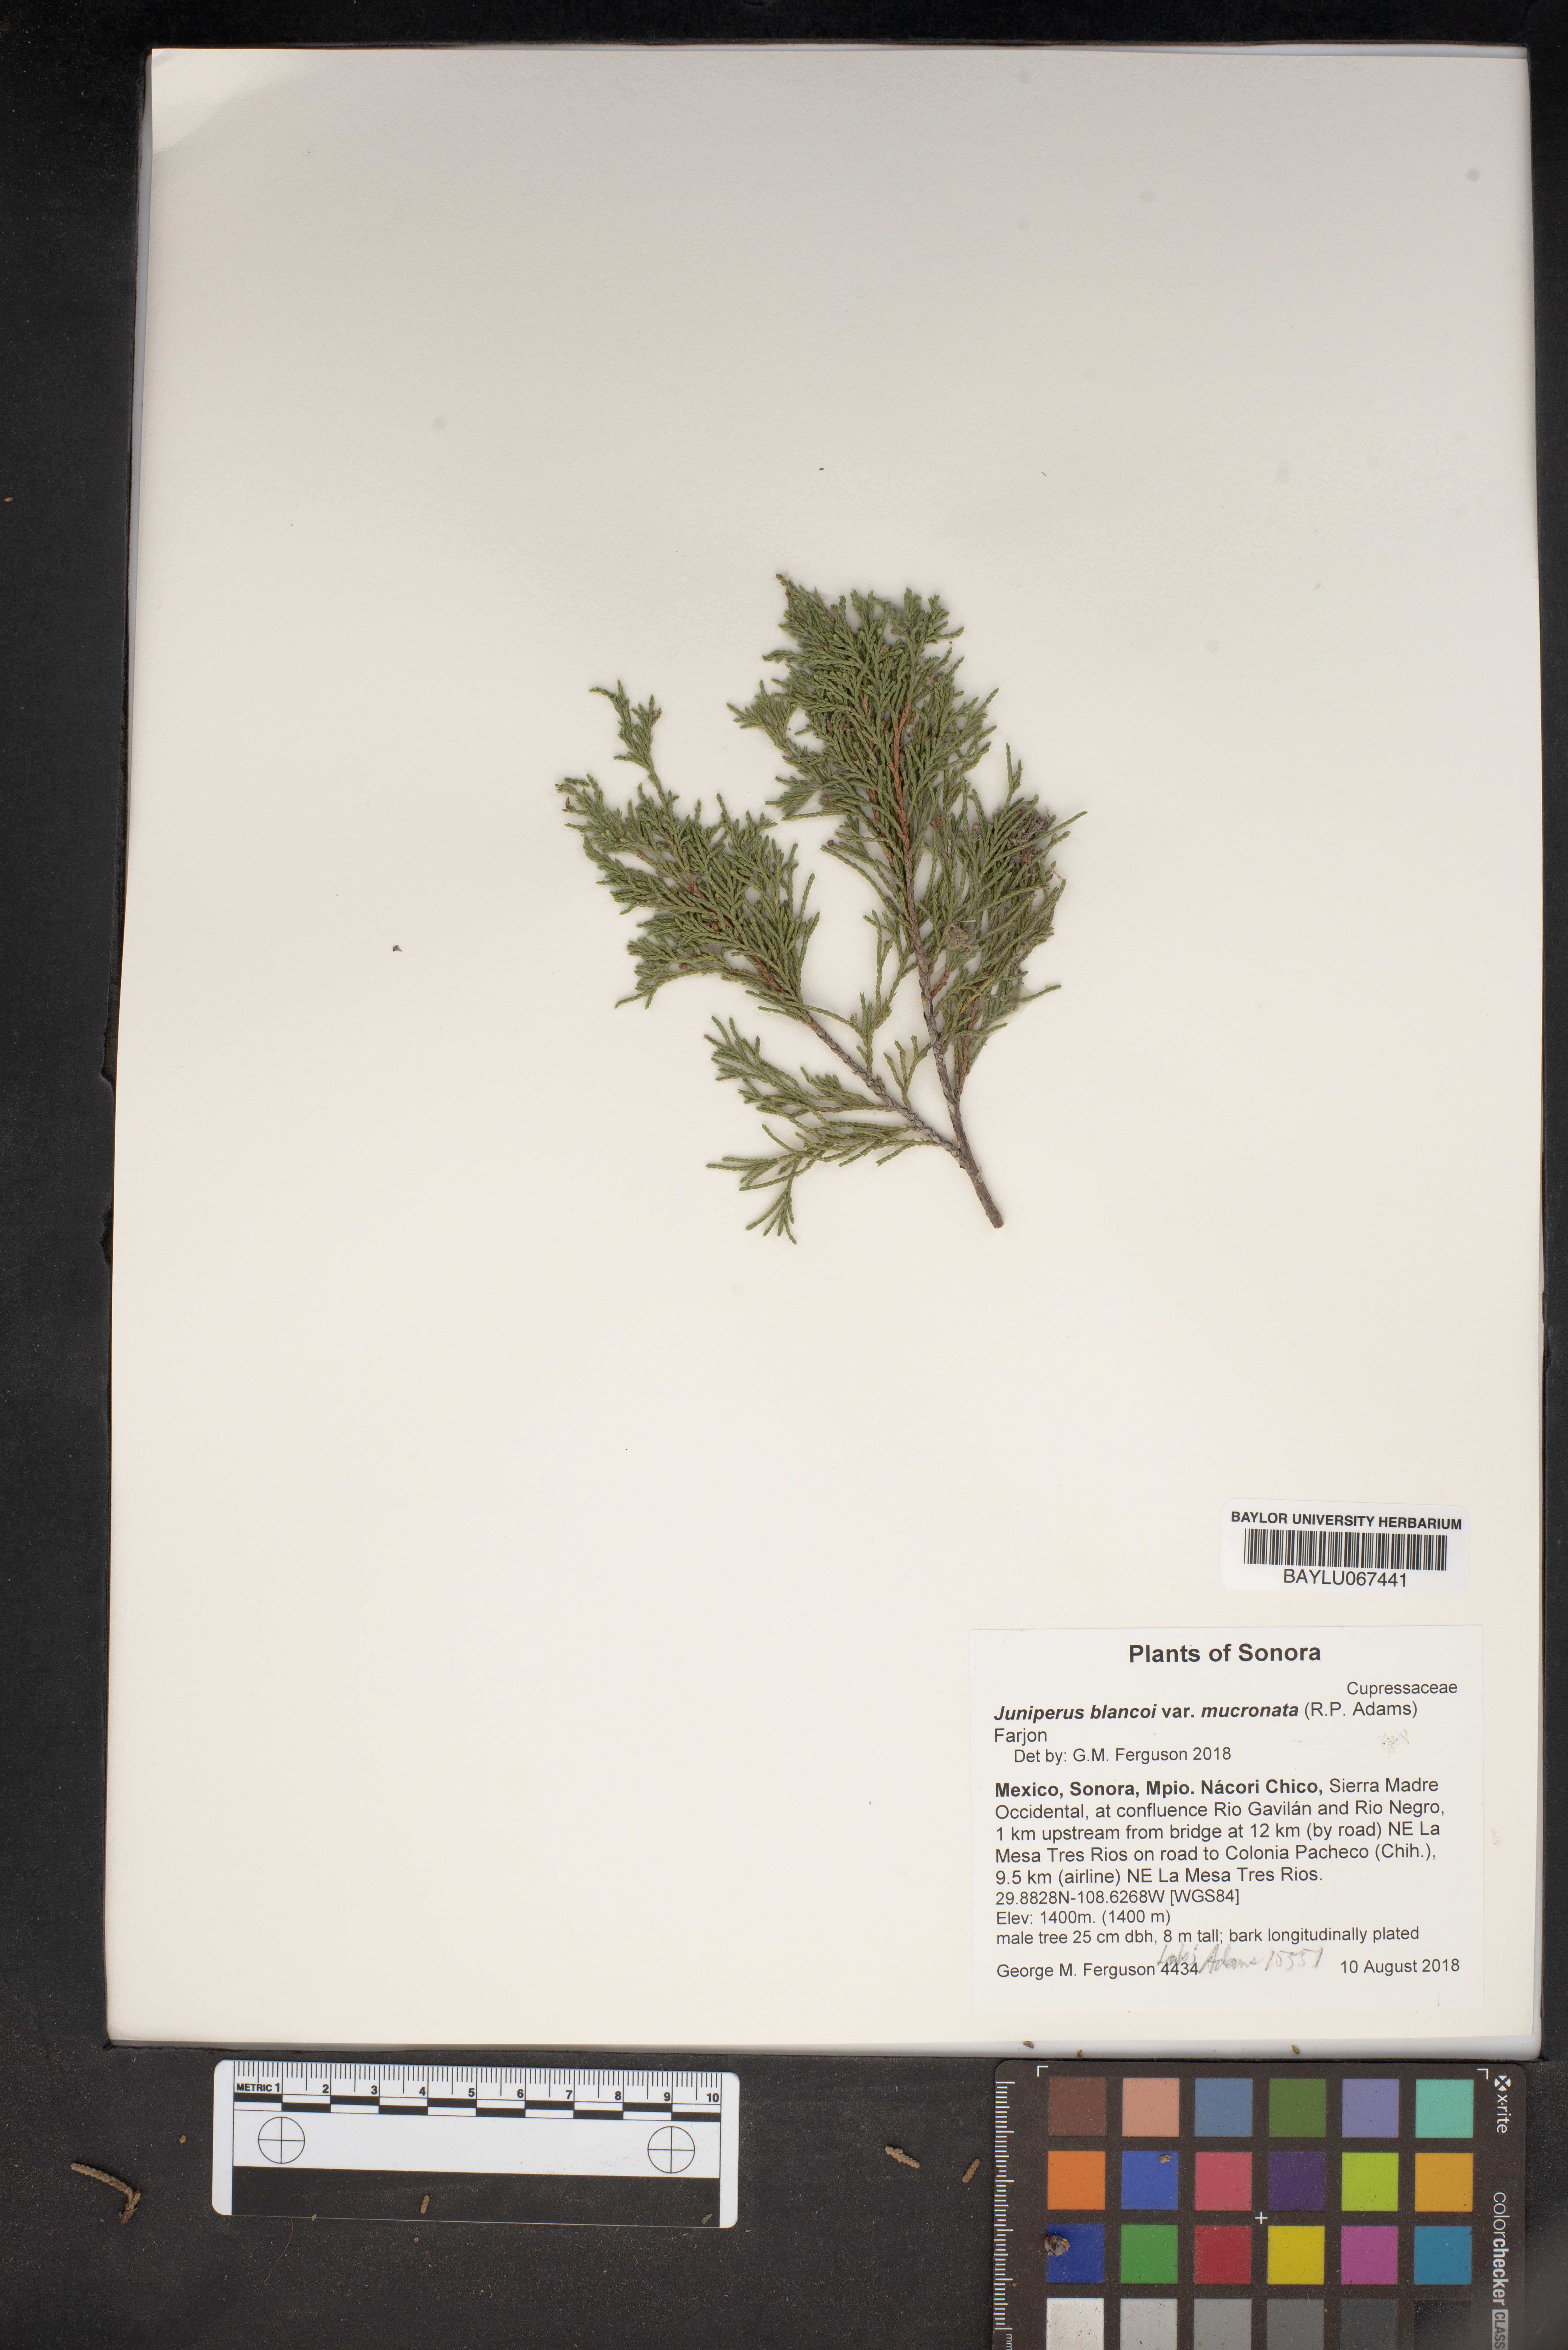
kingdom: Plantae
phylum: Tracheophyta
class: Pinopsida
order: Pinales
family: Cupressaceae
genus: Juniperus
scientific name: Juniperus blancoi
